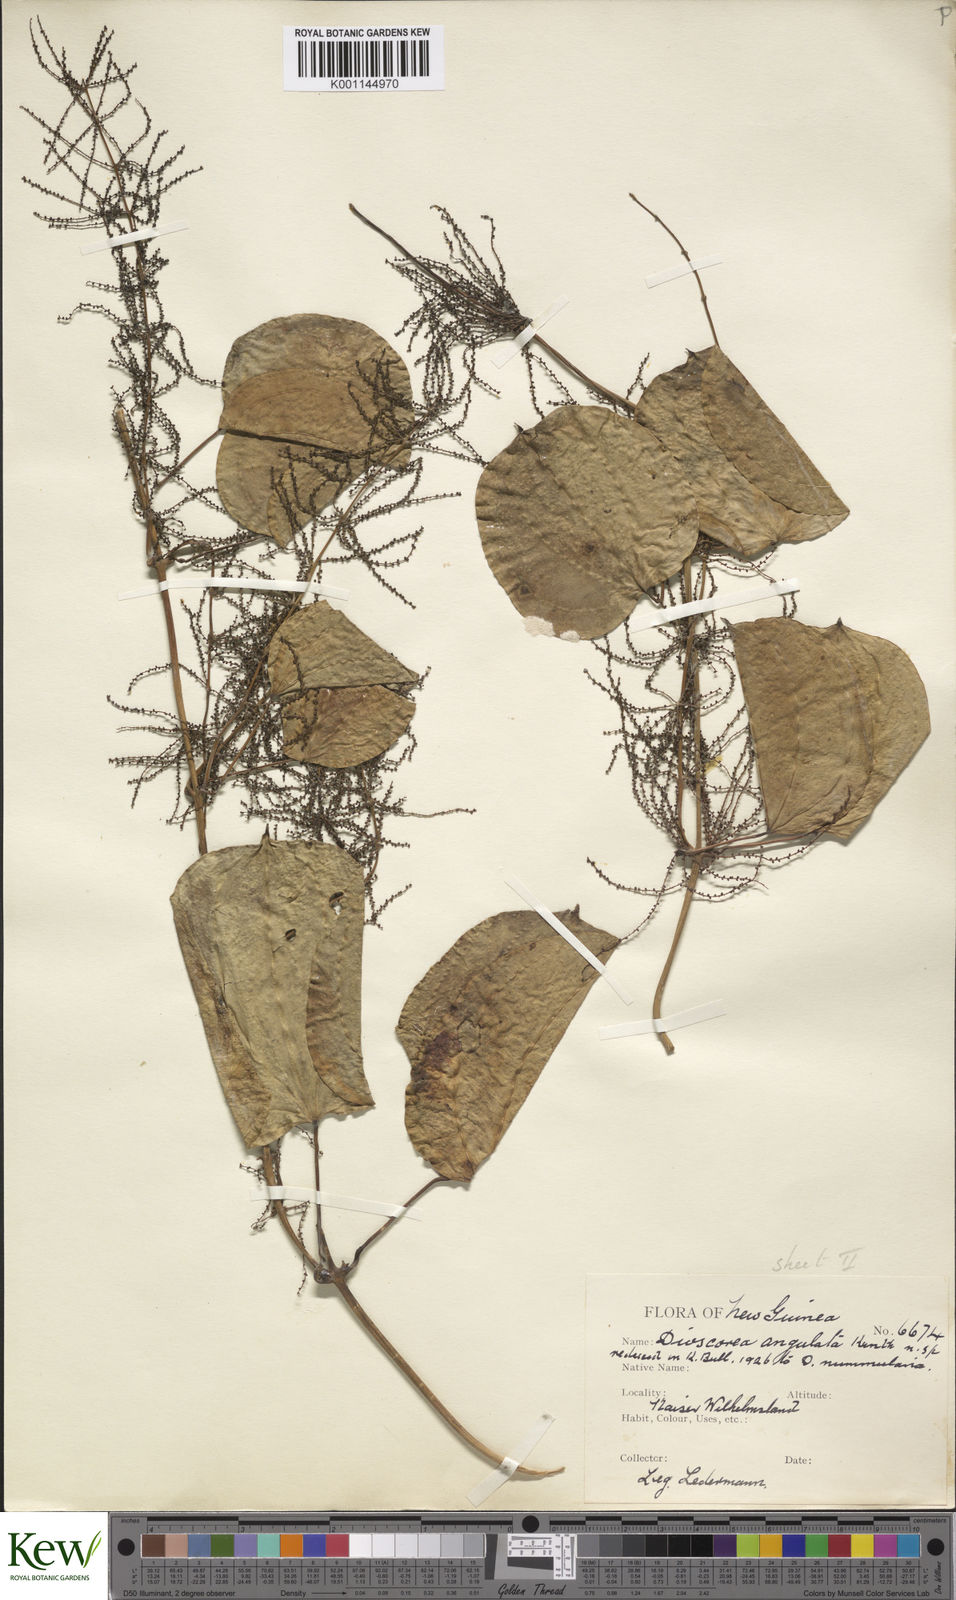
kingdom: Plantae
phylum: Tracheophyta
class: Liliopsida
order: Dioscoreales
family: Dioscoreaceae
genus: Dioscorea
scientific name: Dioscorea nummularia
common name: Pacific yam
